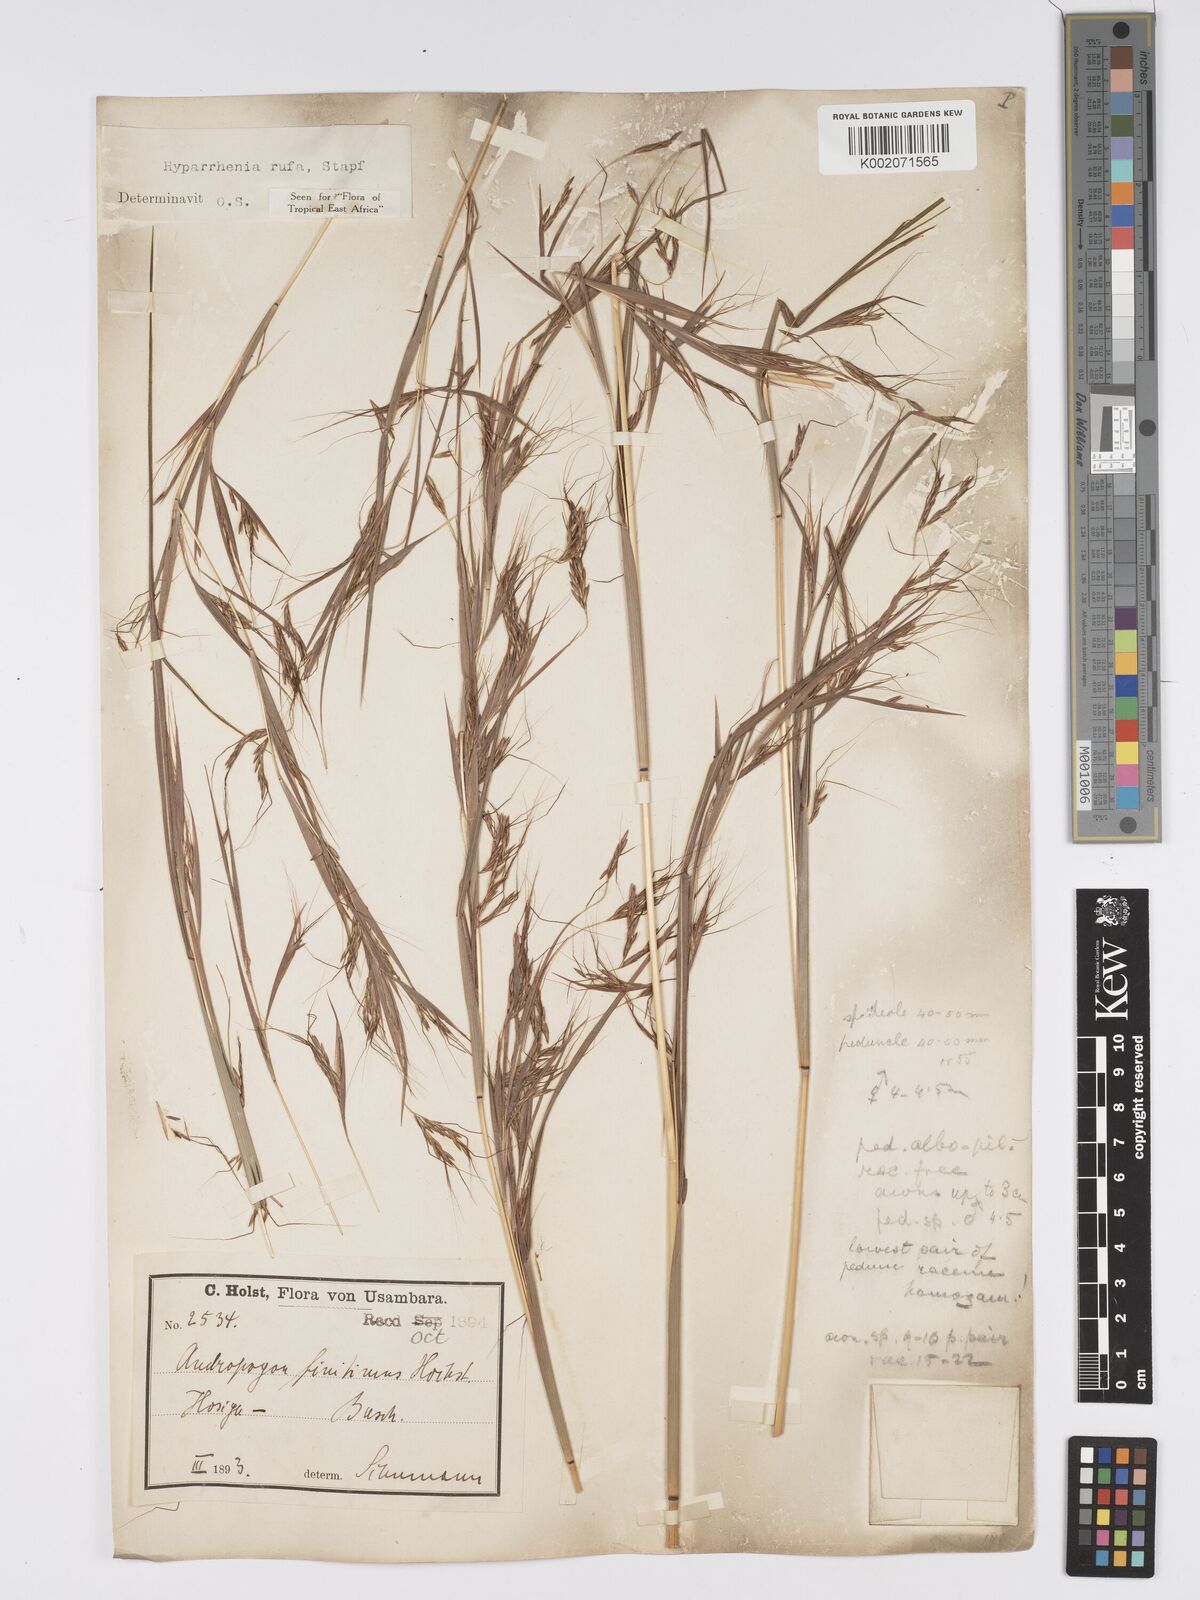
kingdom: Plantae
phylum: Tracheophyta
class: Liliopsida
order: Poales
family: Poaceae
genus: Hyparrhenia
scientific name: Hyparrhenia rufa
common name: Jaraguagrass
